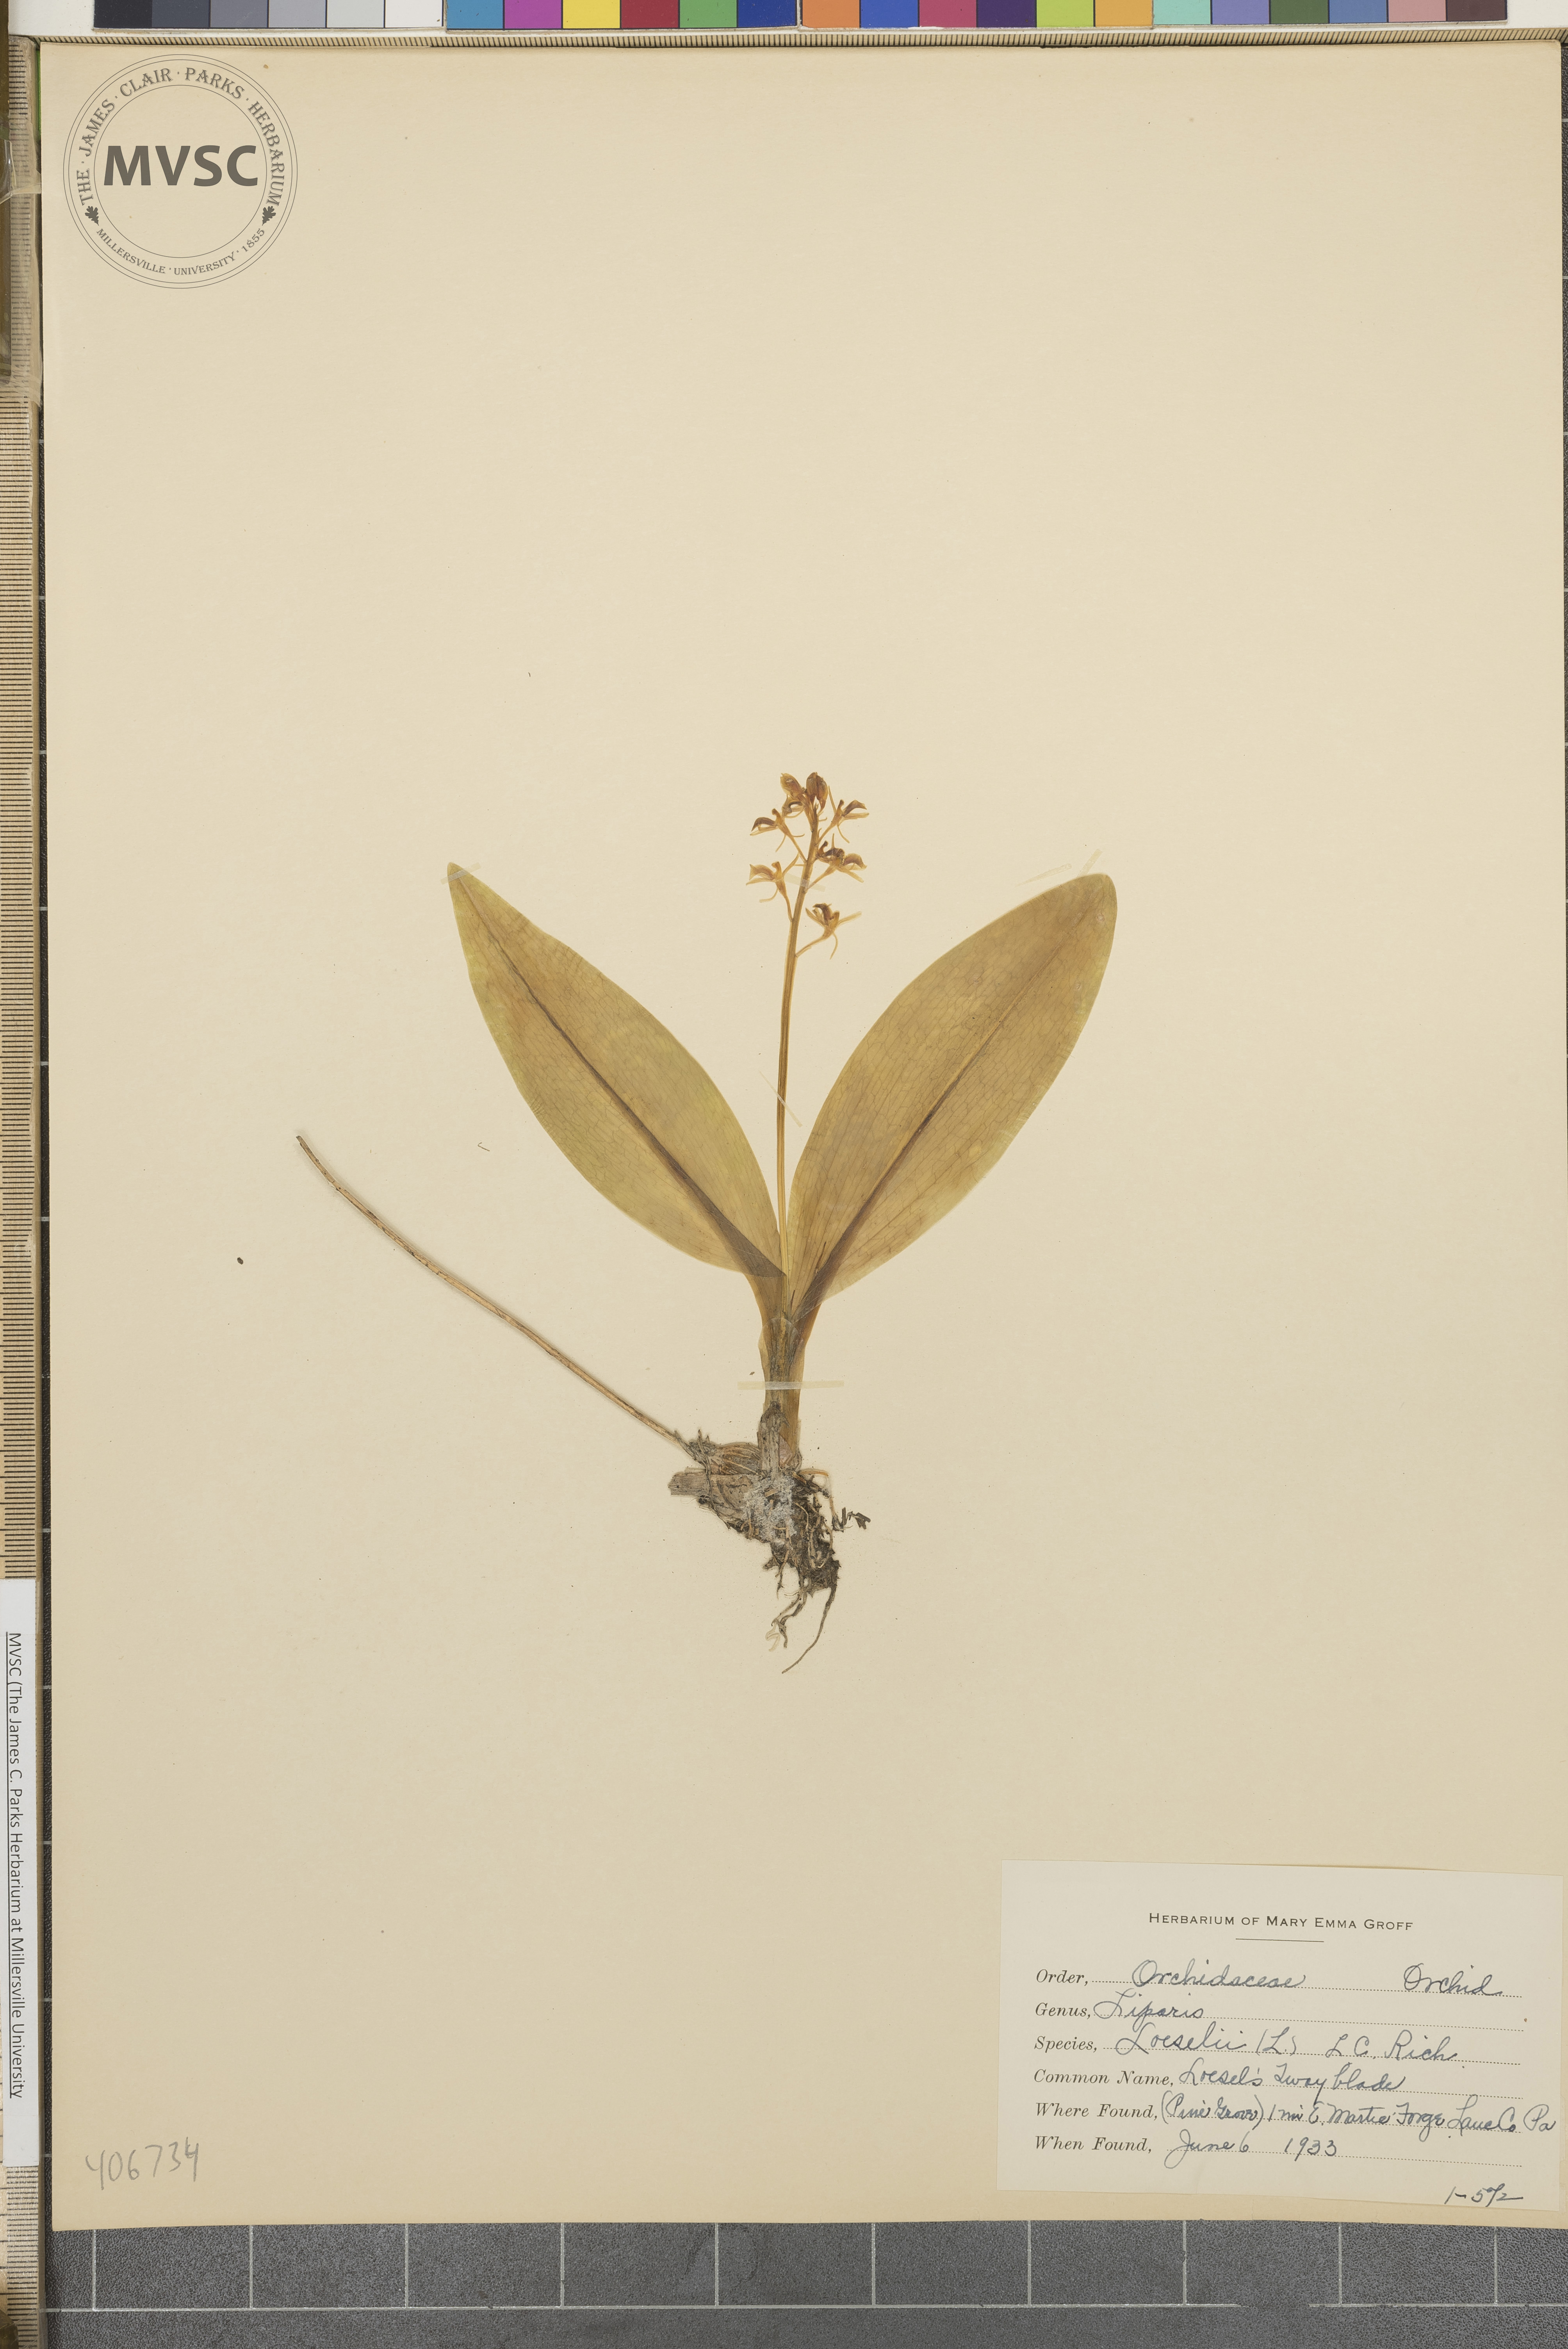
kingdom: Animalia
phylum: Arthropoda
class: Insecta
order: Coleoptera
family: Curculionidae
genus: Liparis
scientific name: Liparis loeselii
